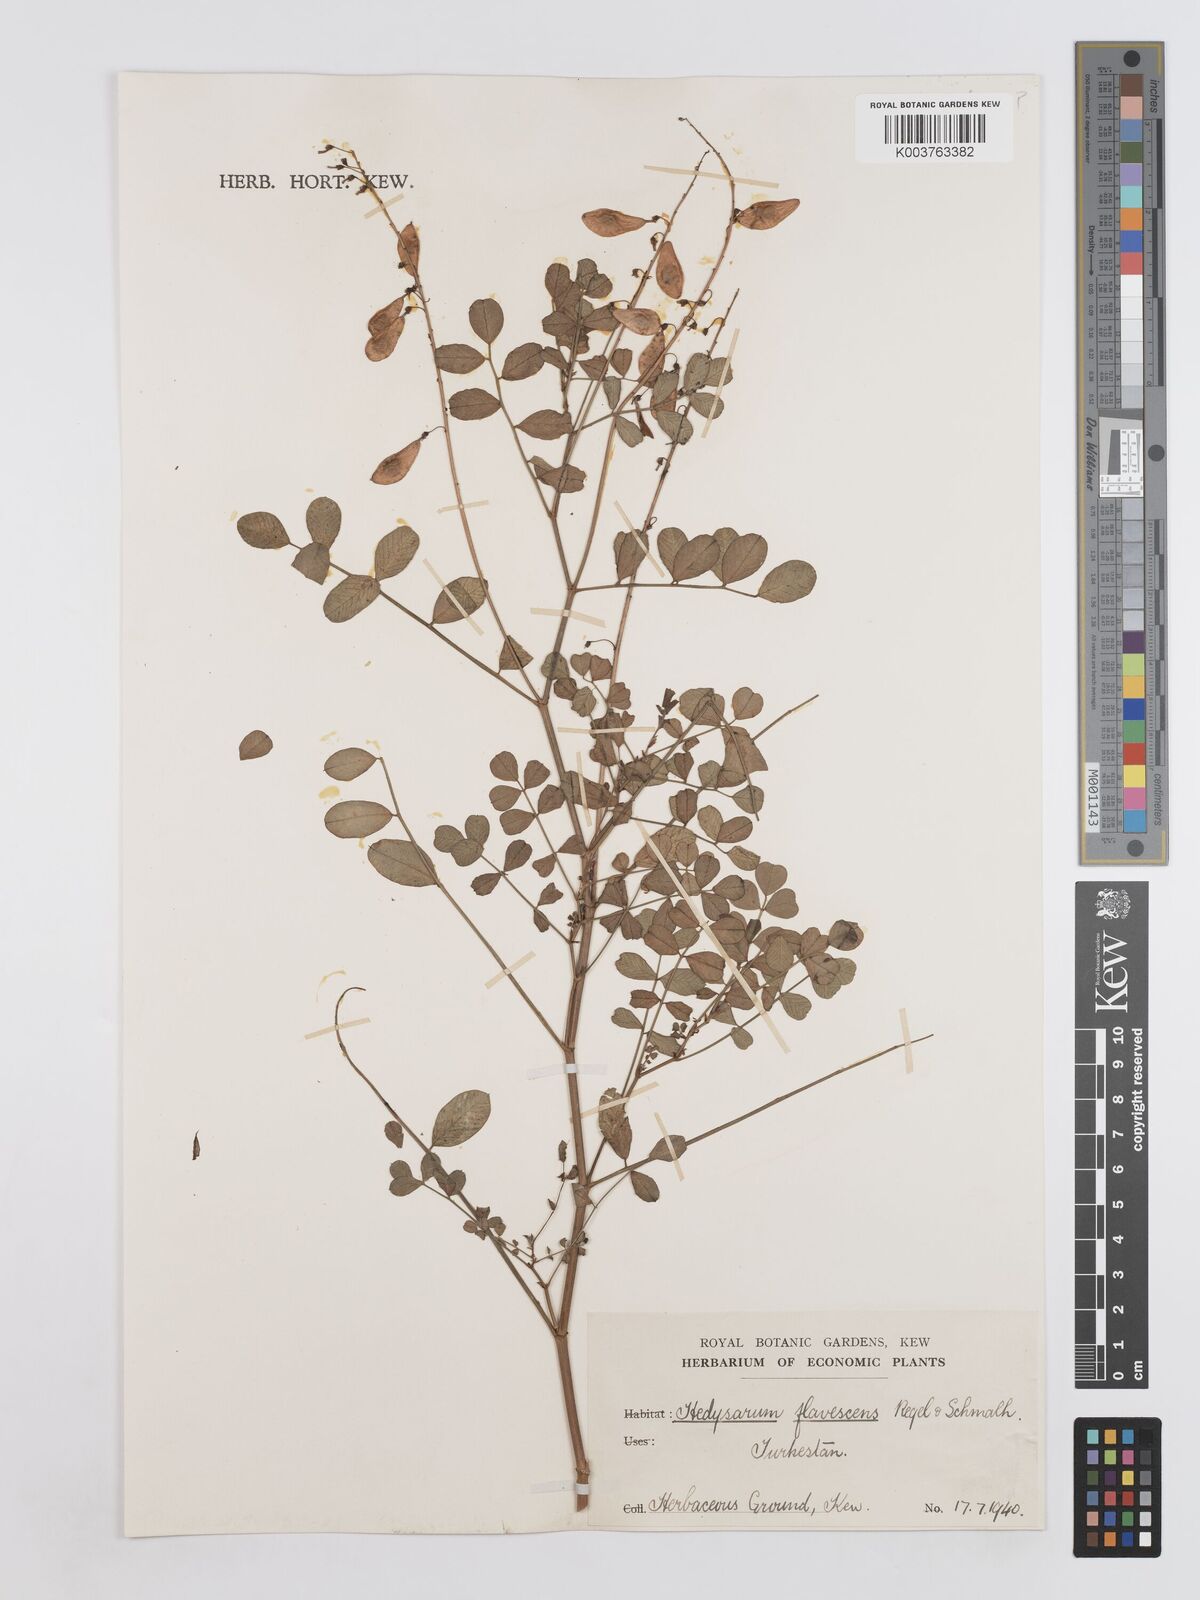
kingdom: Plantae
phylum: Tracheophyta
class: Magnoliopsida
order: Fabales
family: Fabaceae
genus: Hedysarum
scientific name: Hedysarum flavescens
